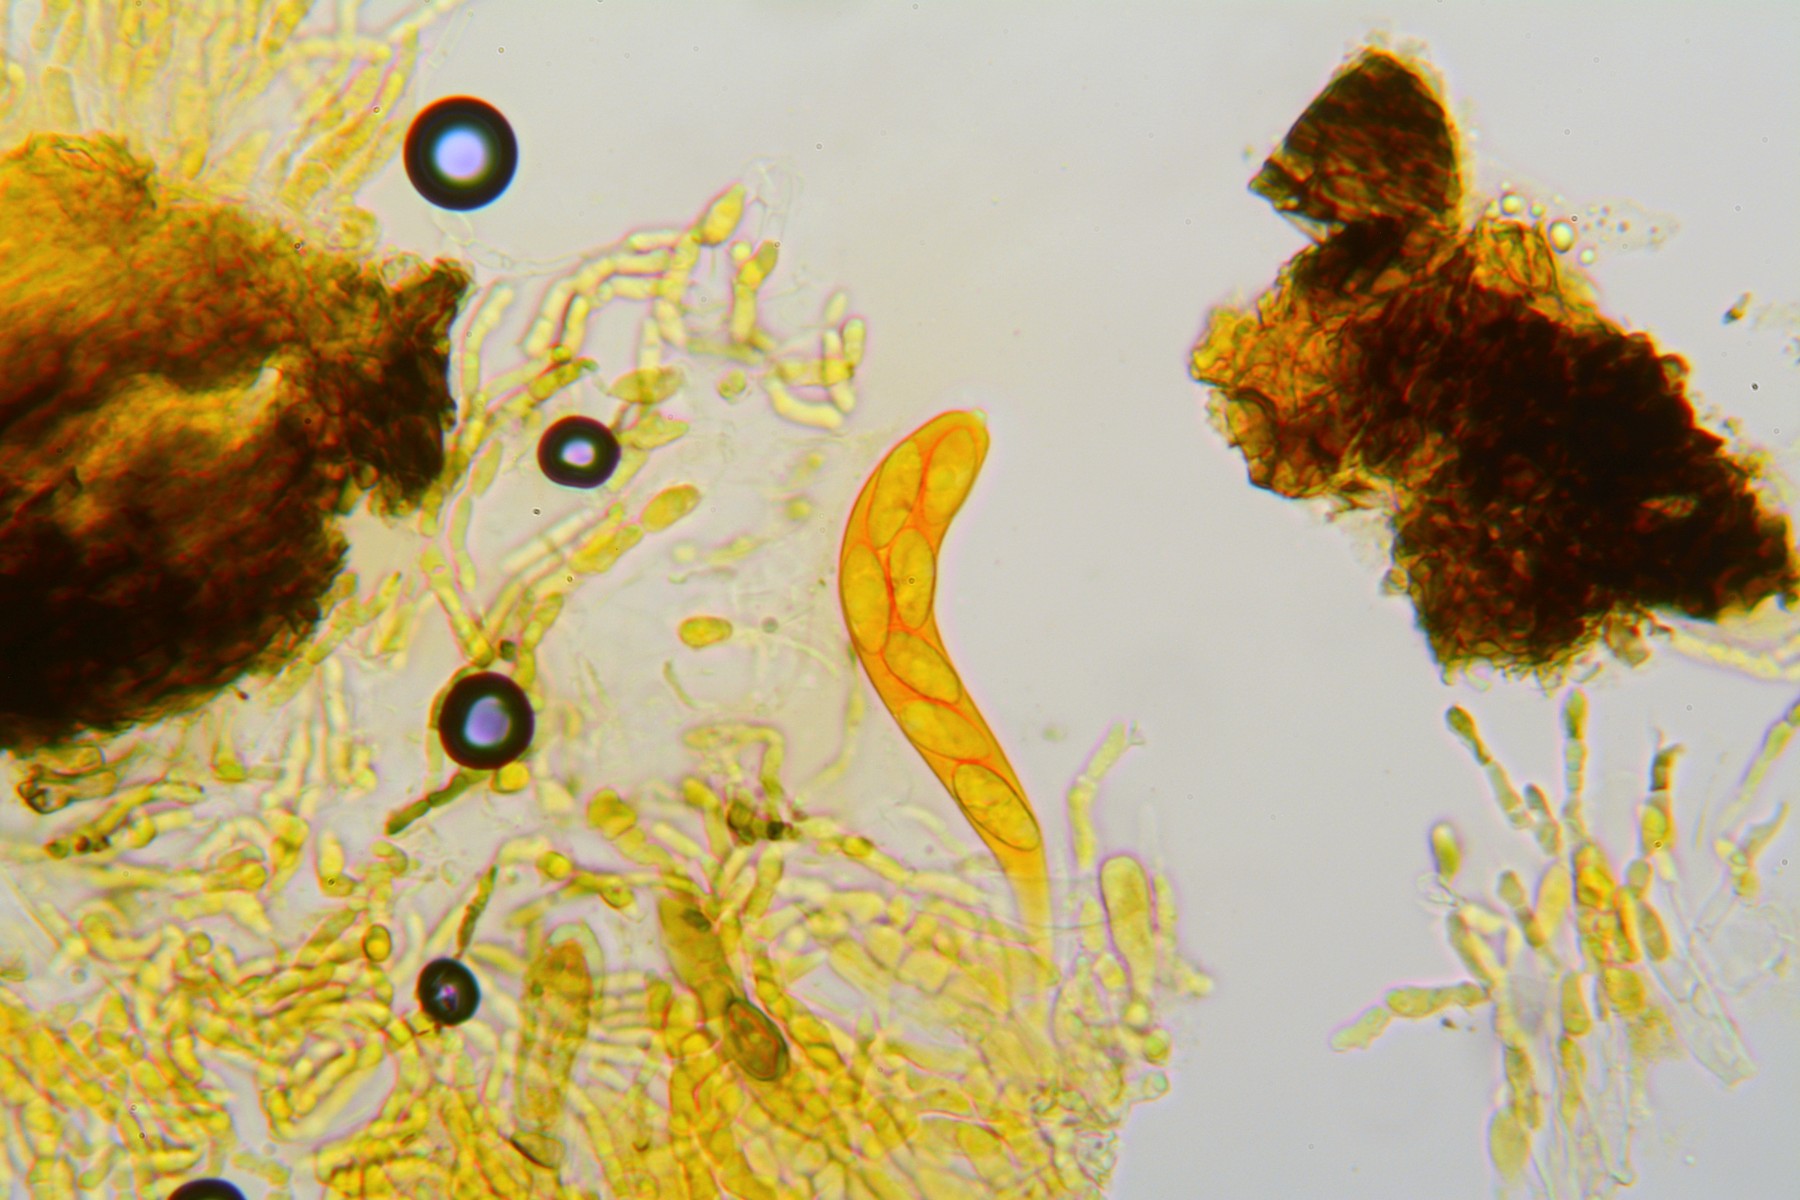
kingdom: Fungi
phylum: Ascomycota
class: Dothideomycetes
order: Botryosphaeriales
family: Botryosphaeriaceae
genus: Botryosphaeria
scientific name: Botryosphaeria dothidea
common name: Asteromyia gall midge fungus
